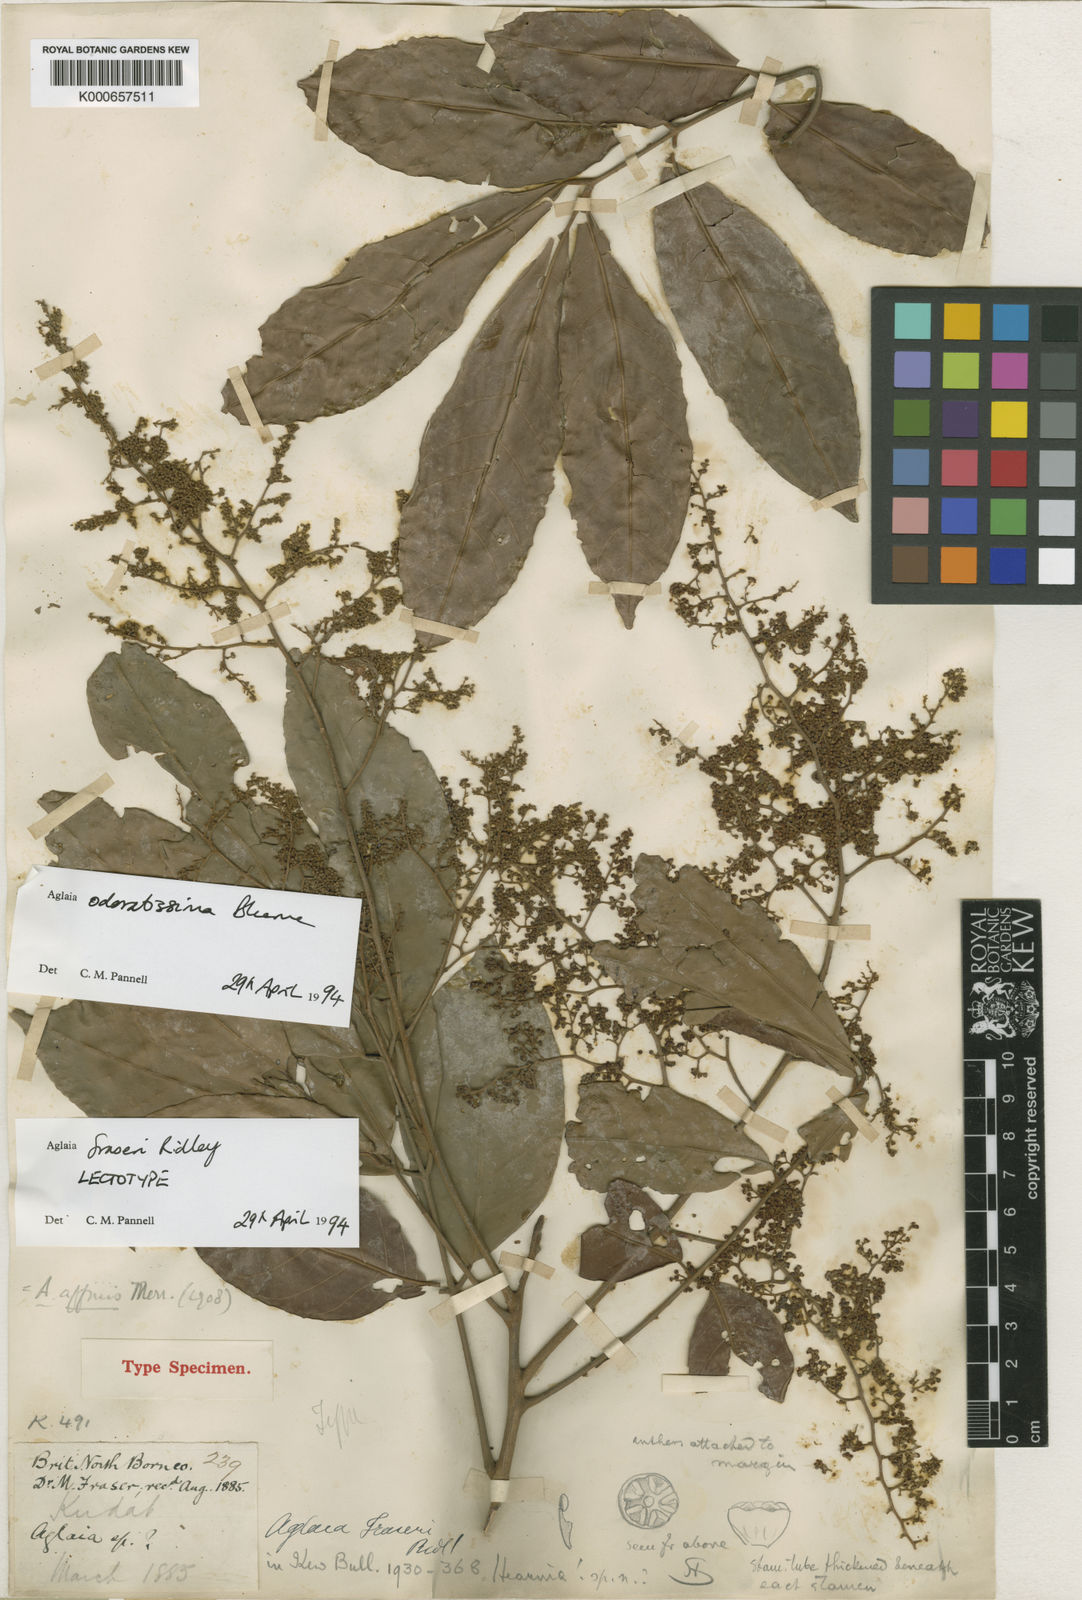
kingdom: Plantae
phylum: Tracheophyta
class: Magnoliopsida
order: Sapindales
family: Meliaceae
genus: Aglaia
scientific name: Aglaia odoratissima
